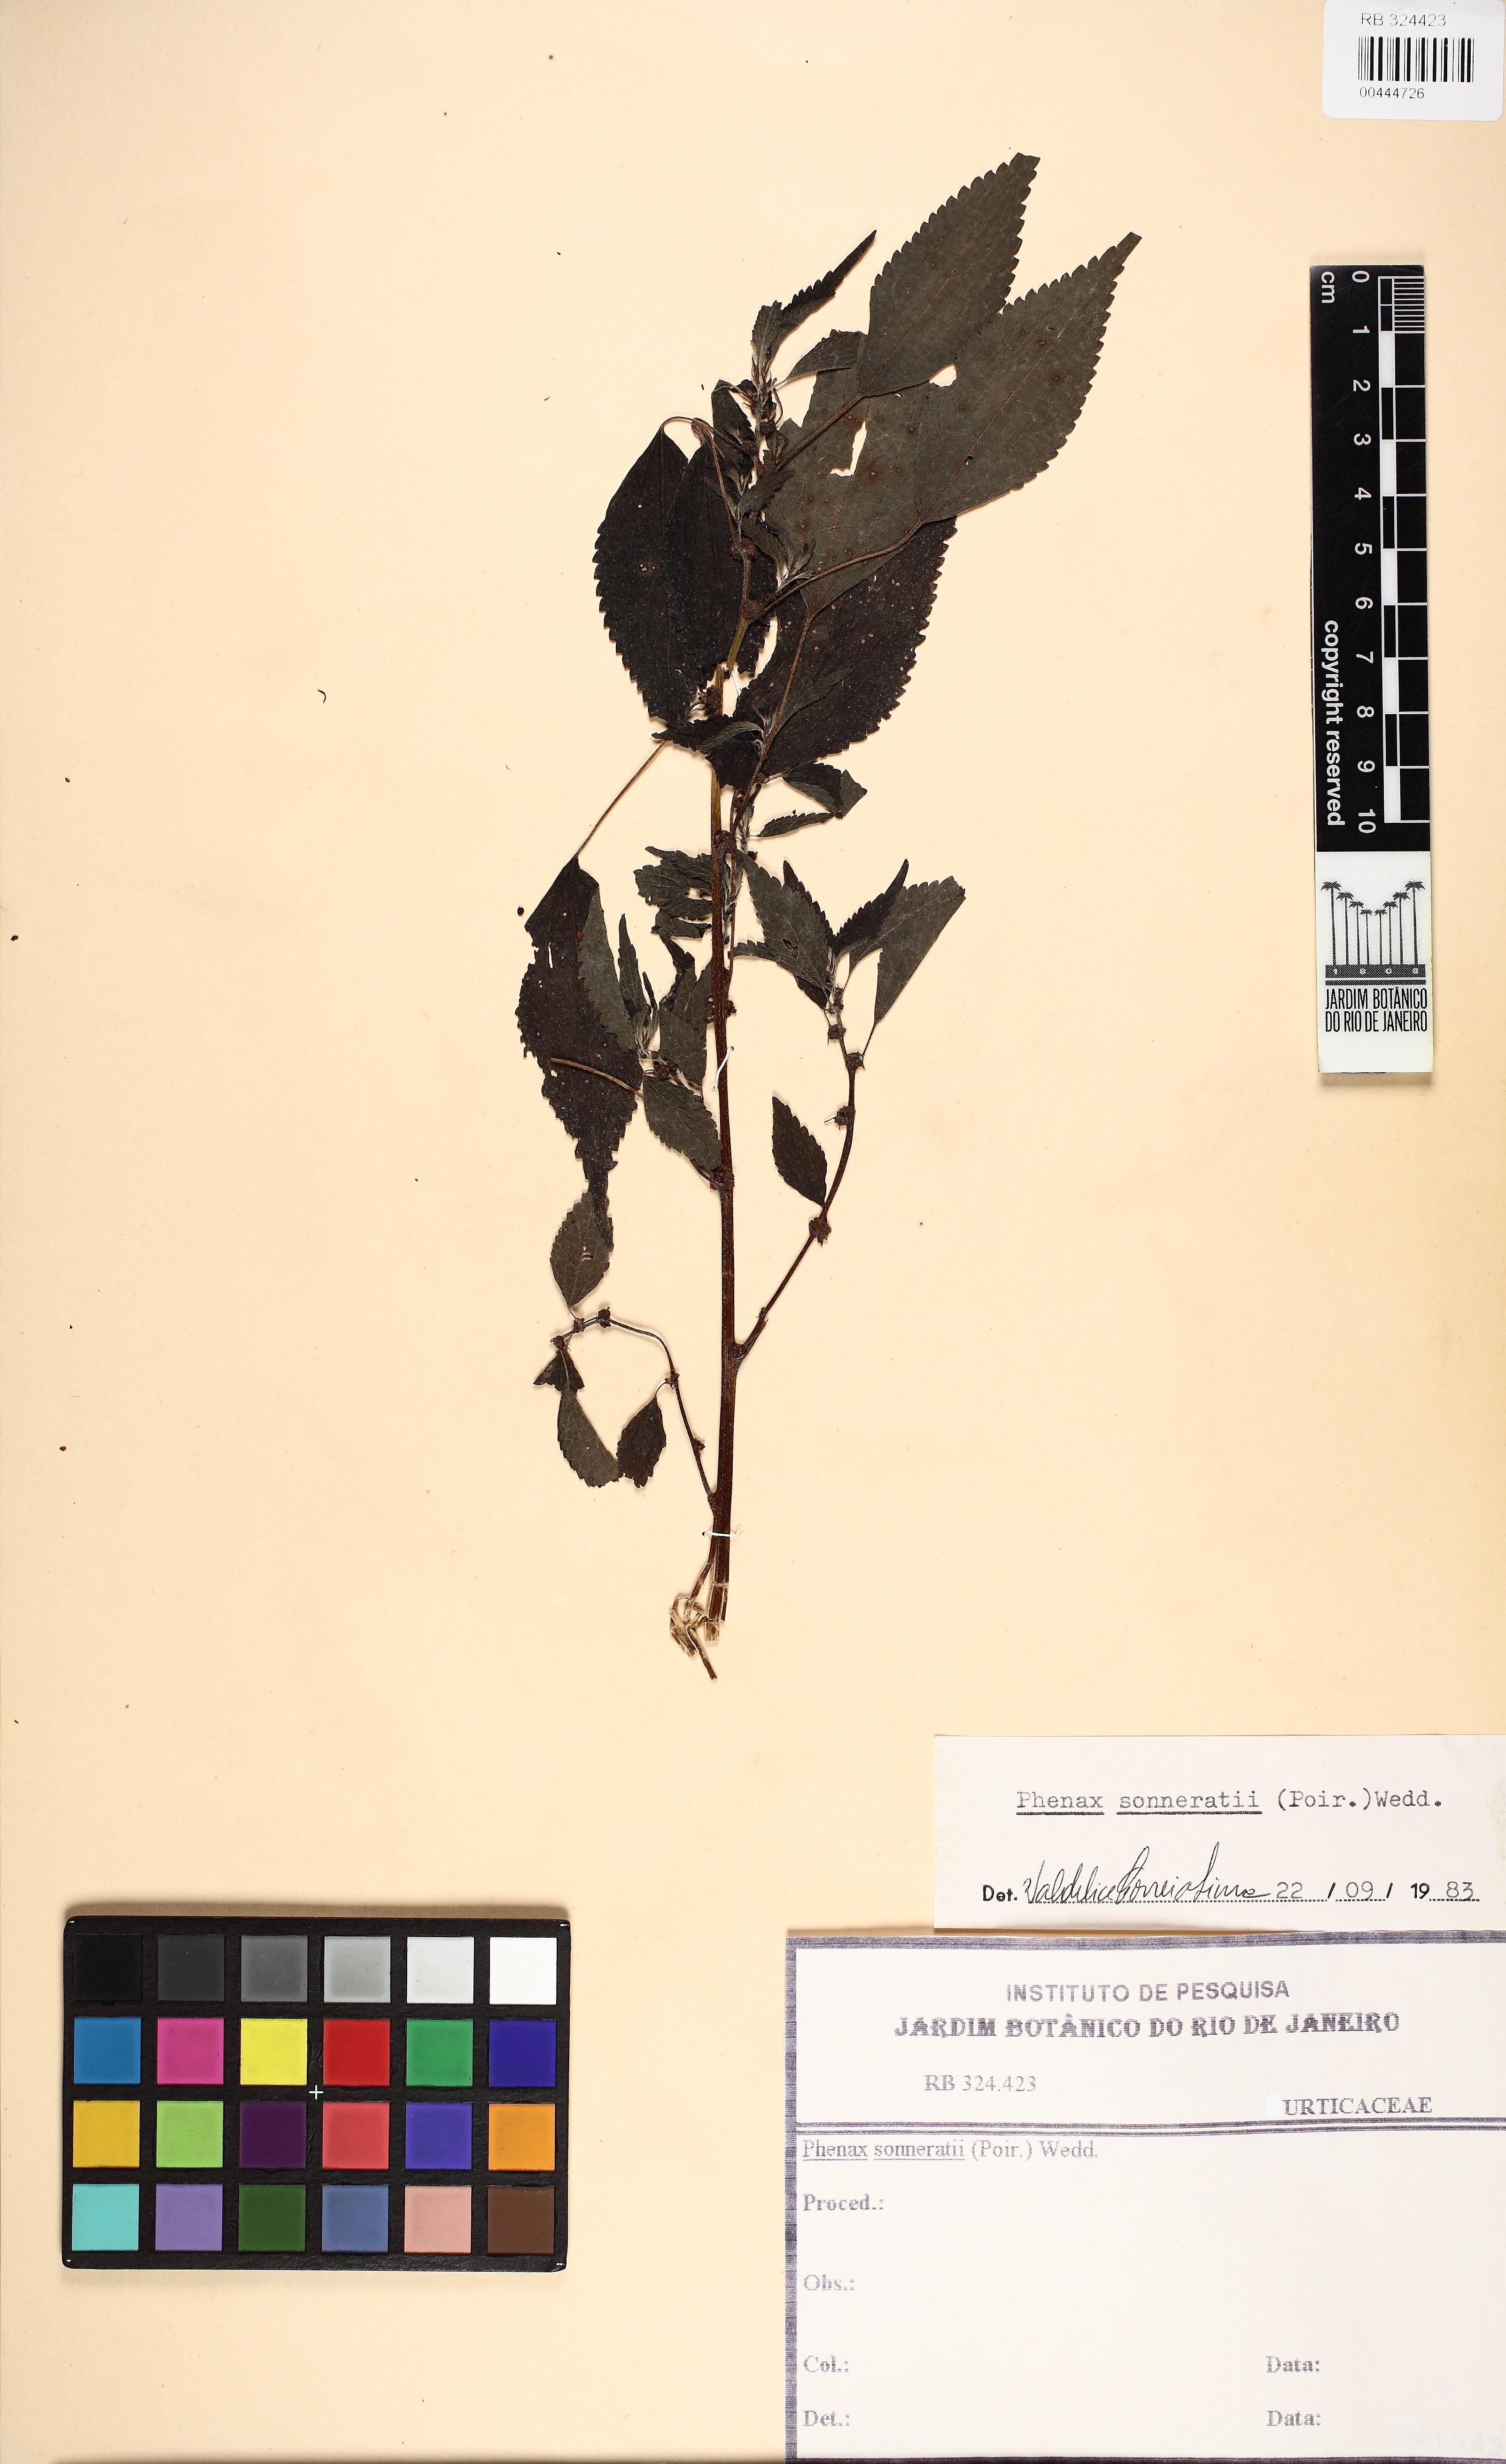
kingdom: Plantae
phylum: Tracheophyta
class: Magnoliopsida
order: Rosales
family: Urticaceae
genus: Phenax
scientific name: Phenax sonneratii
